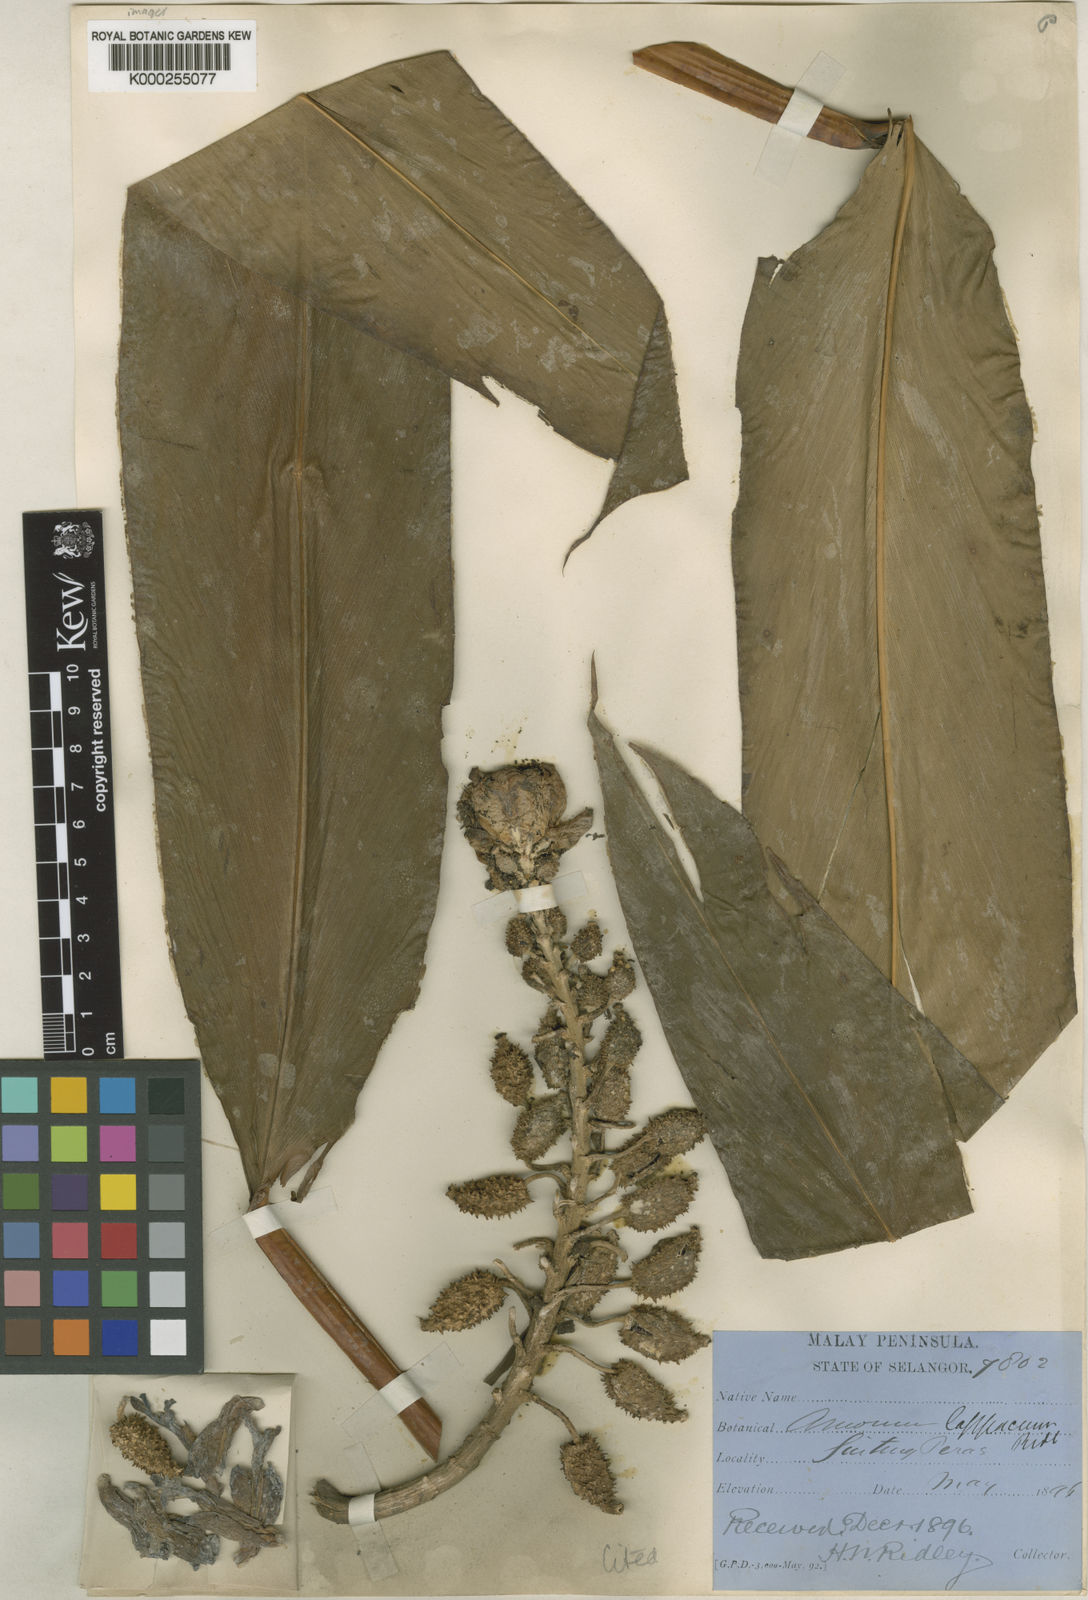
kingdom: Plantae
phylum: Tracheophyta
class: Liliopsida
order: Zingiberales
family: Zingiberaceae
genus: Meistera
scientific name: Meistera lappacea
